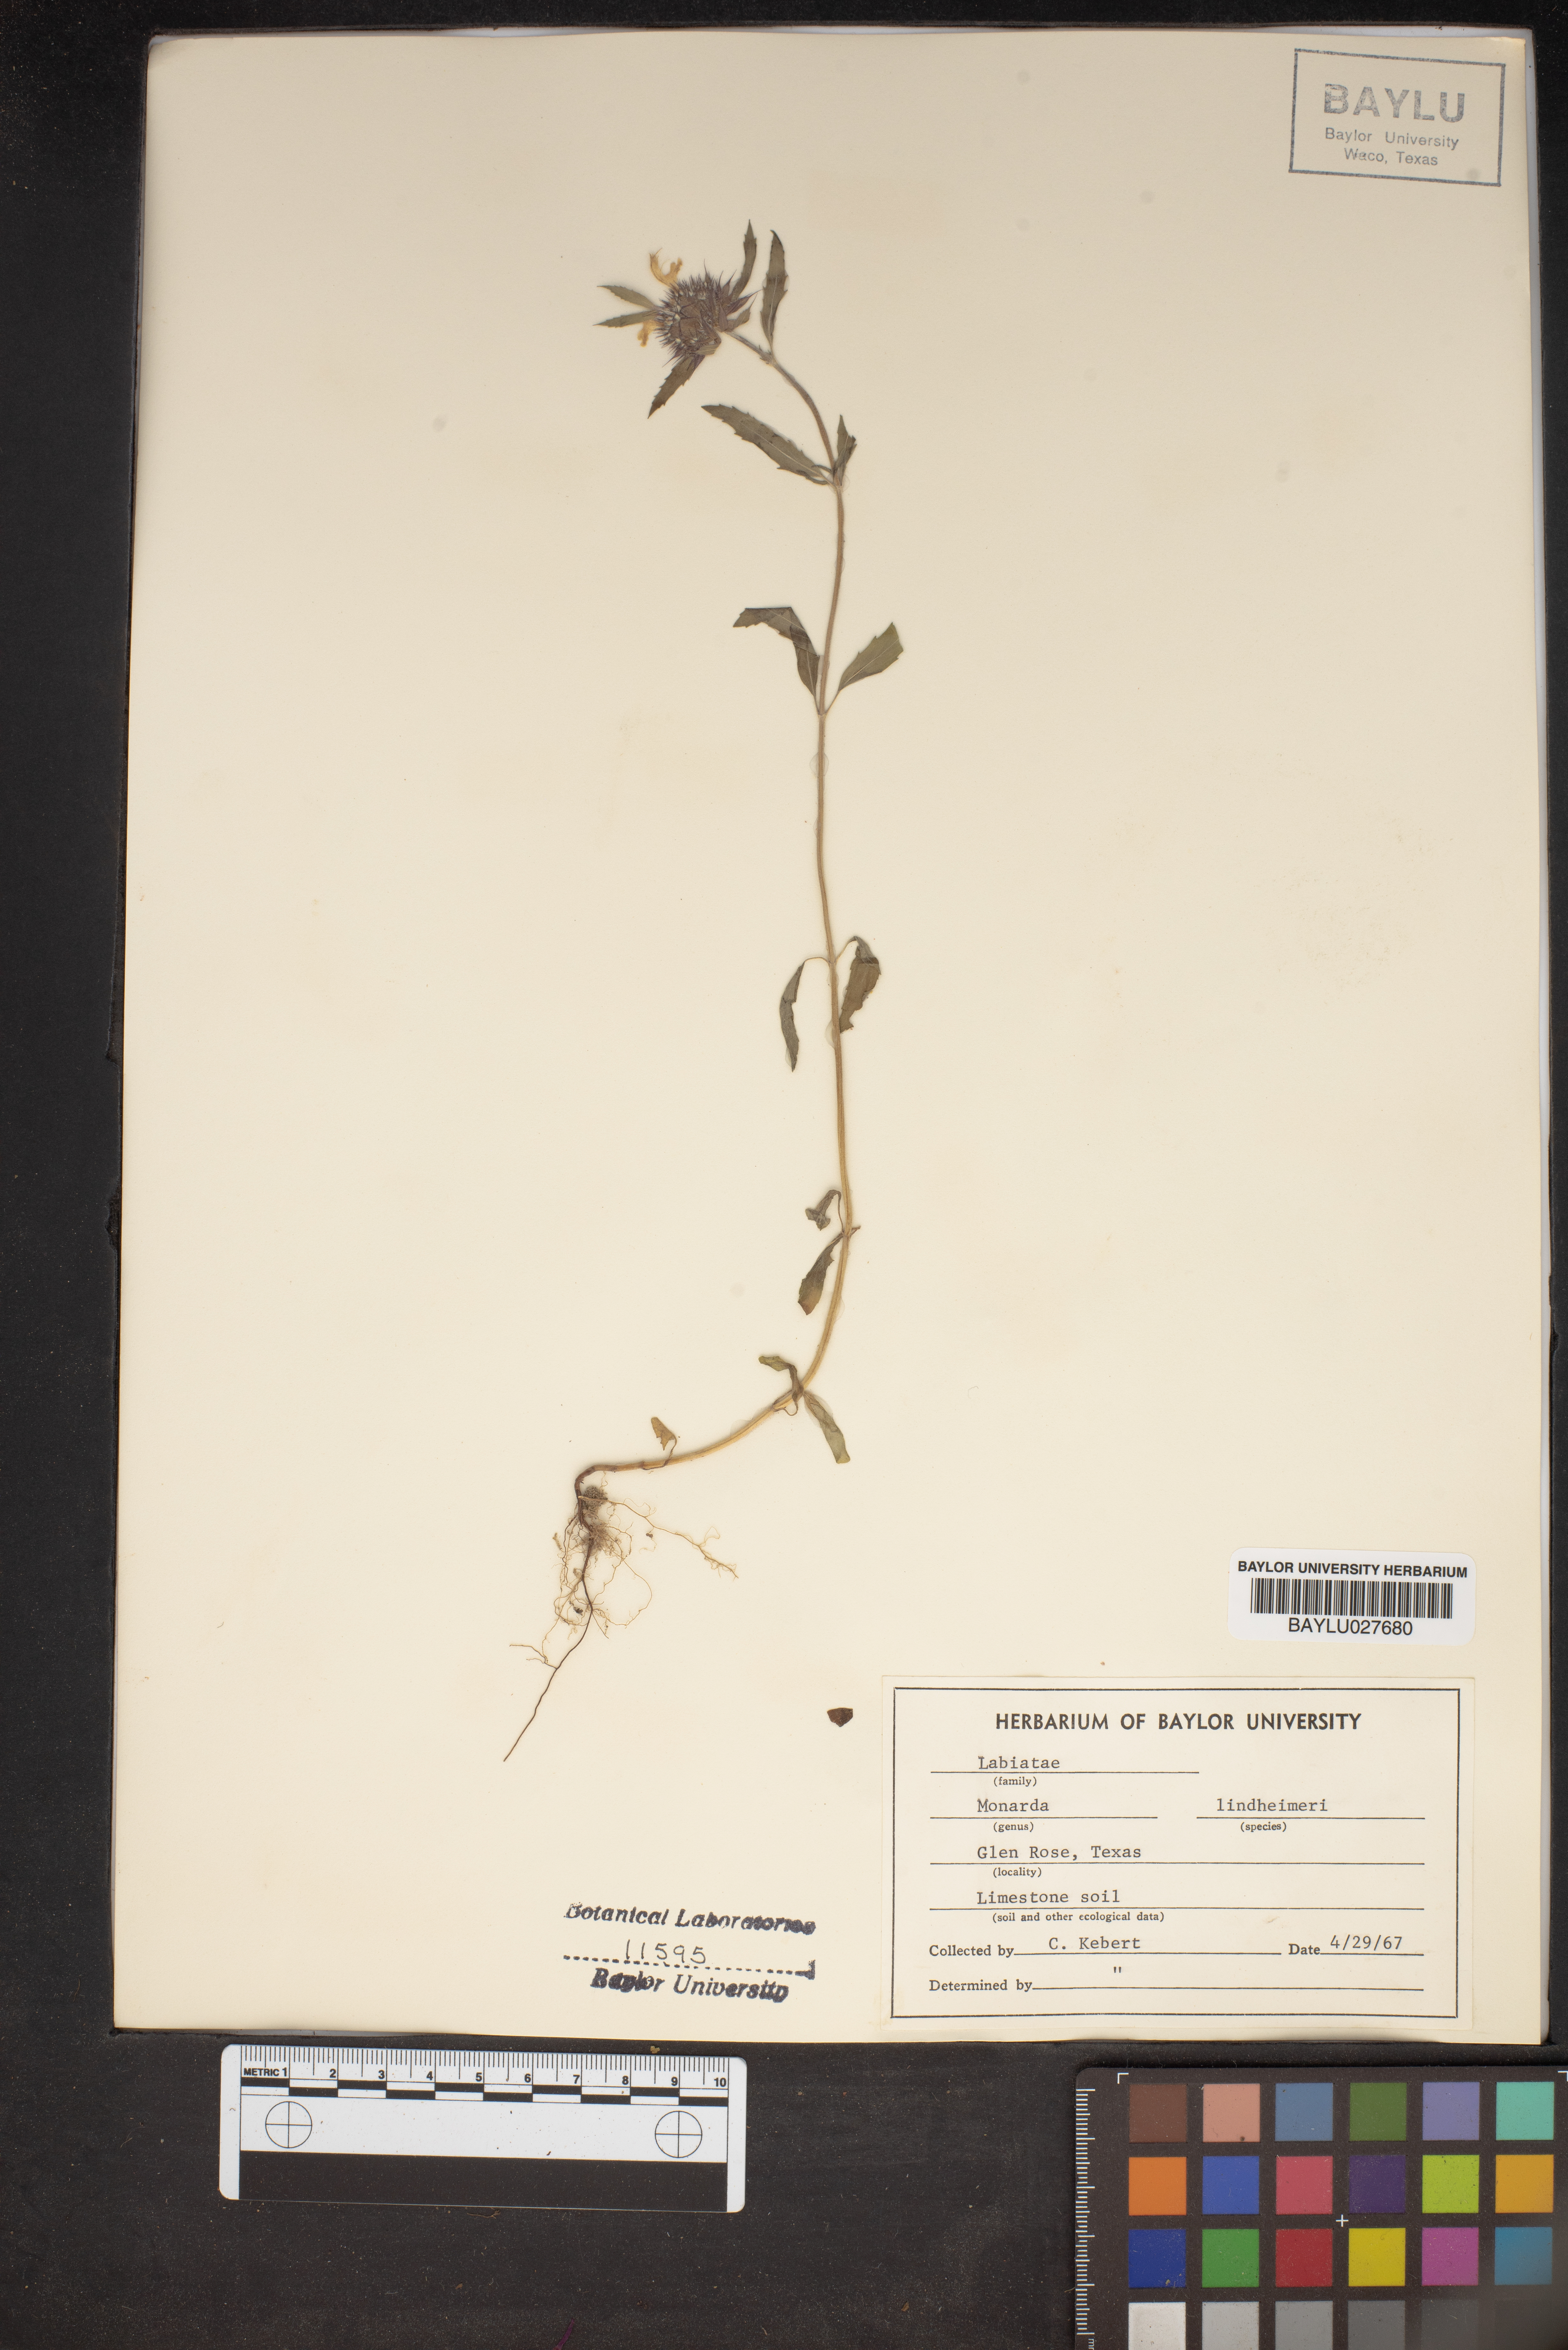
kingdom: Plantae
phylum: Tracheophyta
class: Magnoliopsida
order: Lamiales
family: Lamiaceae
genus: Monarda
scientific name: Monarda lindheimeri
